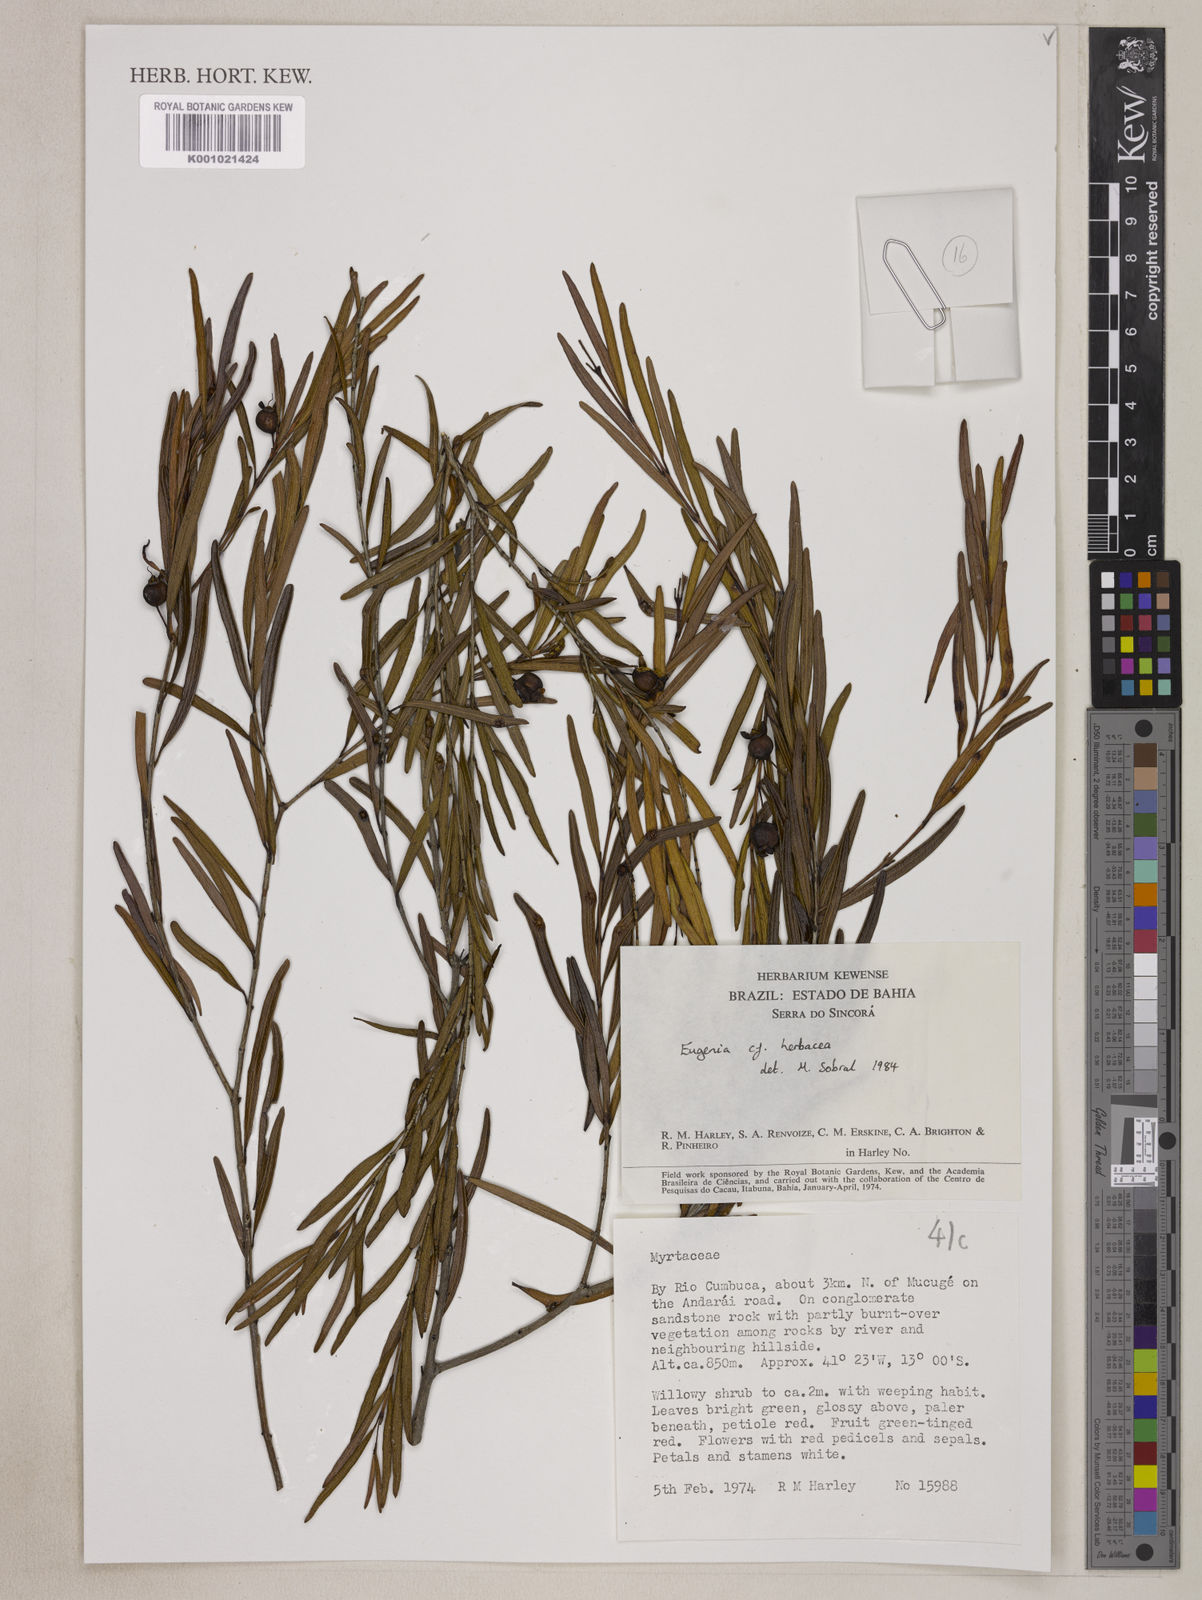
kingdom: Plantae
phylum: Tracheophyta
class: Magnoliopsida
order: Myrtales
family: Myrtaceae
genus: Eugenia
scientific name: Eugenia herbacea
